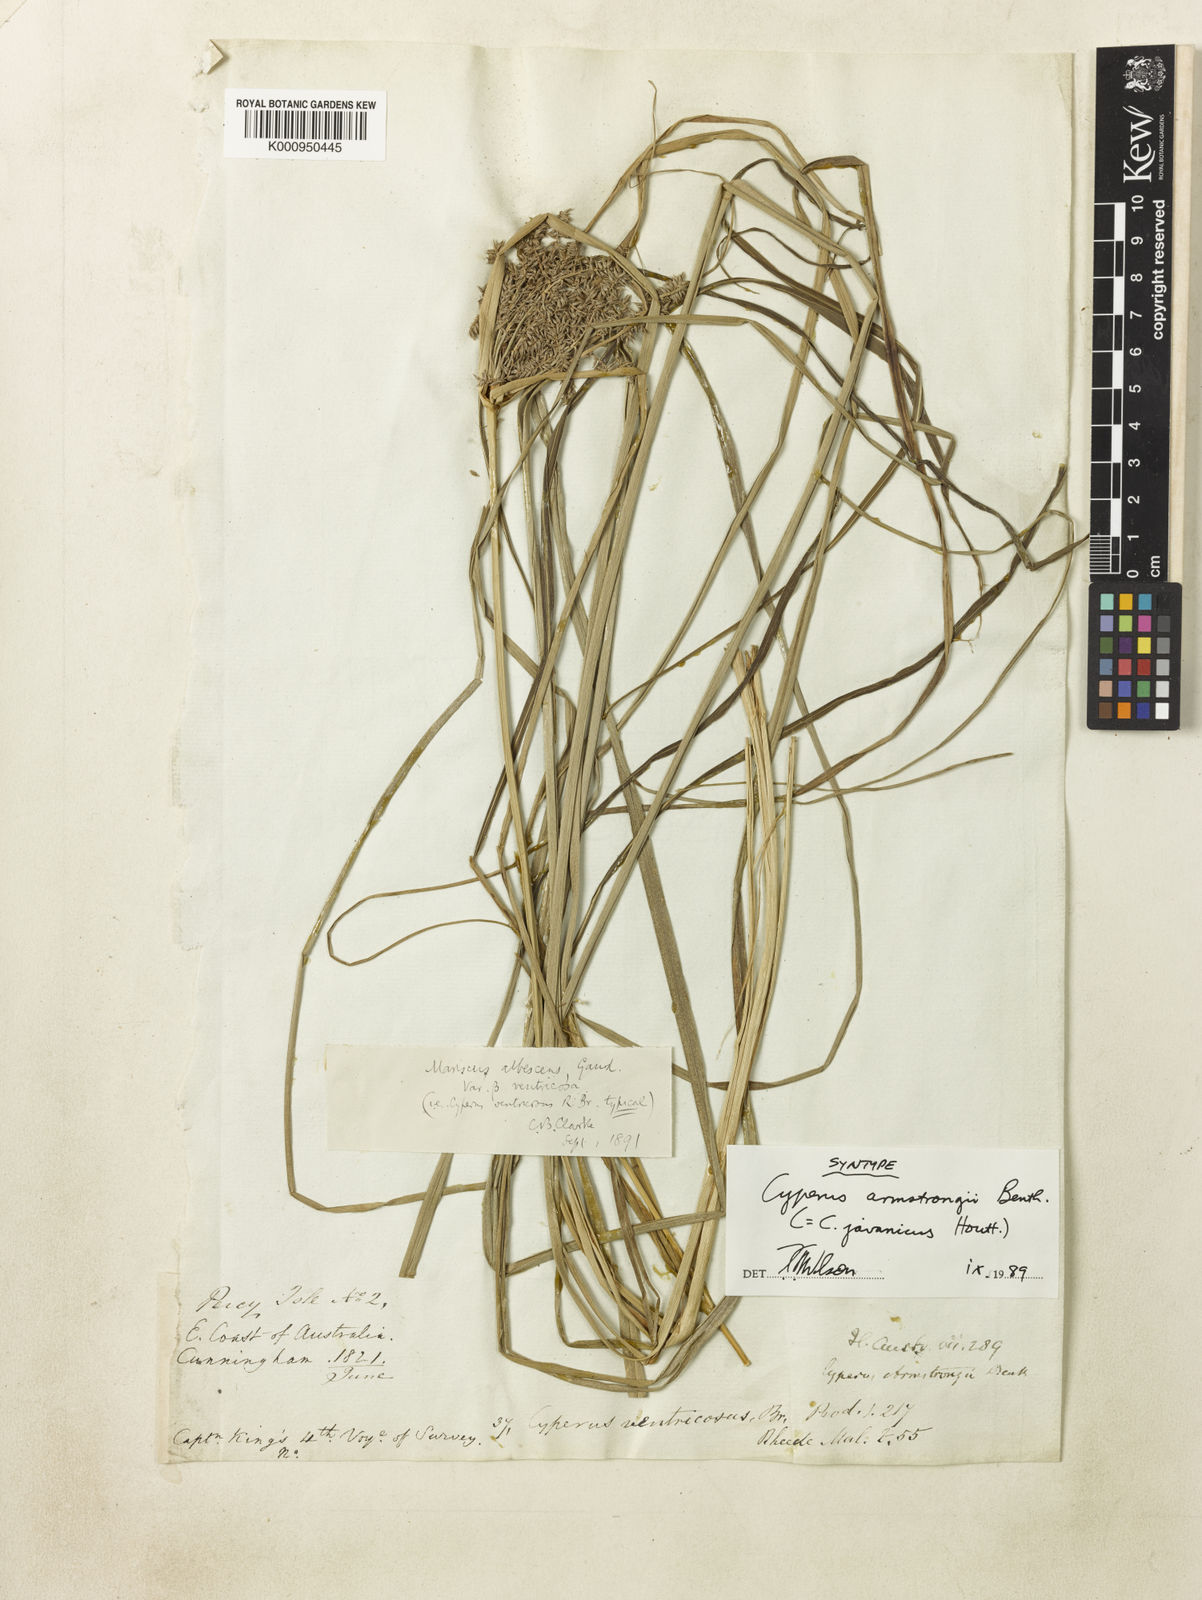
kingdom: Plantae
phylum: Tracheophyta
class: Liliopsida
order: Poales
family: Cyperaceae
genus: Cyperus
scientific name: Cyperus javanicus
